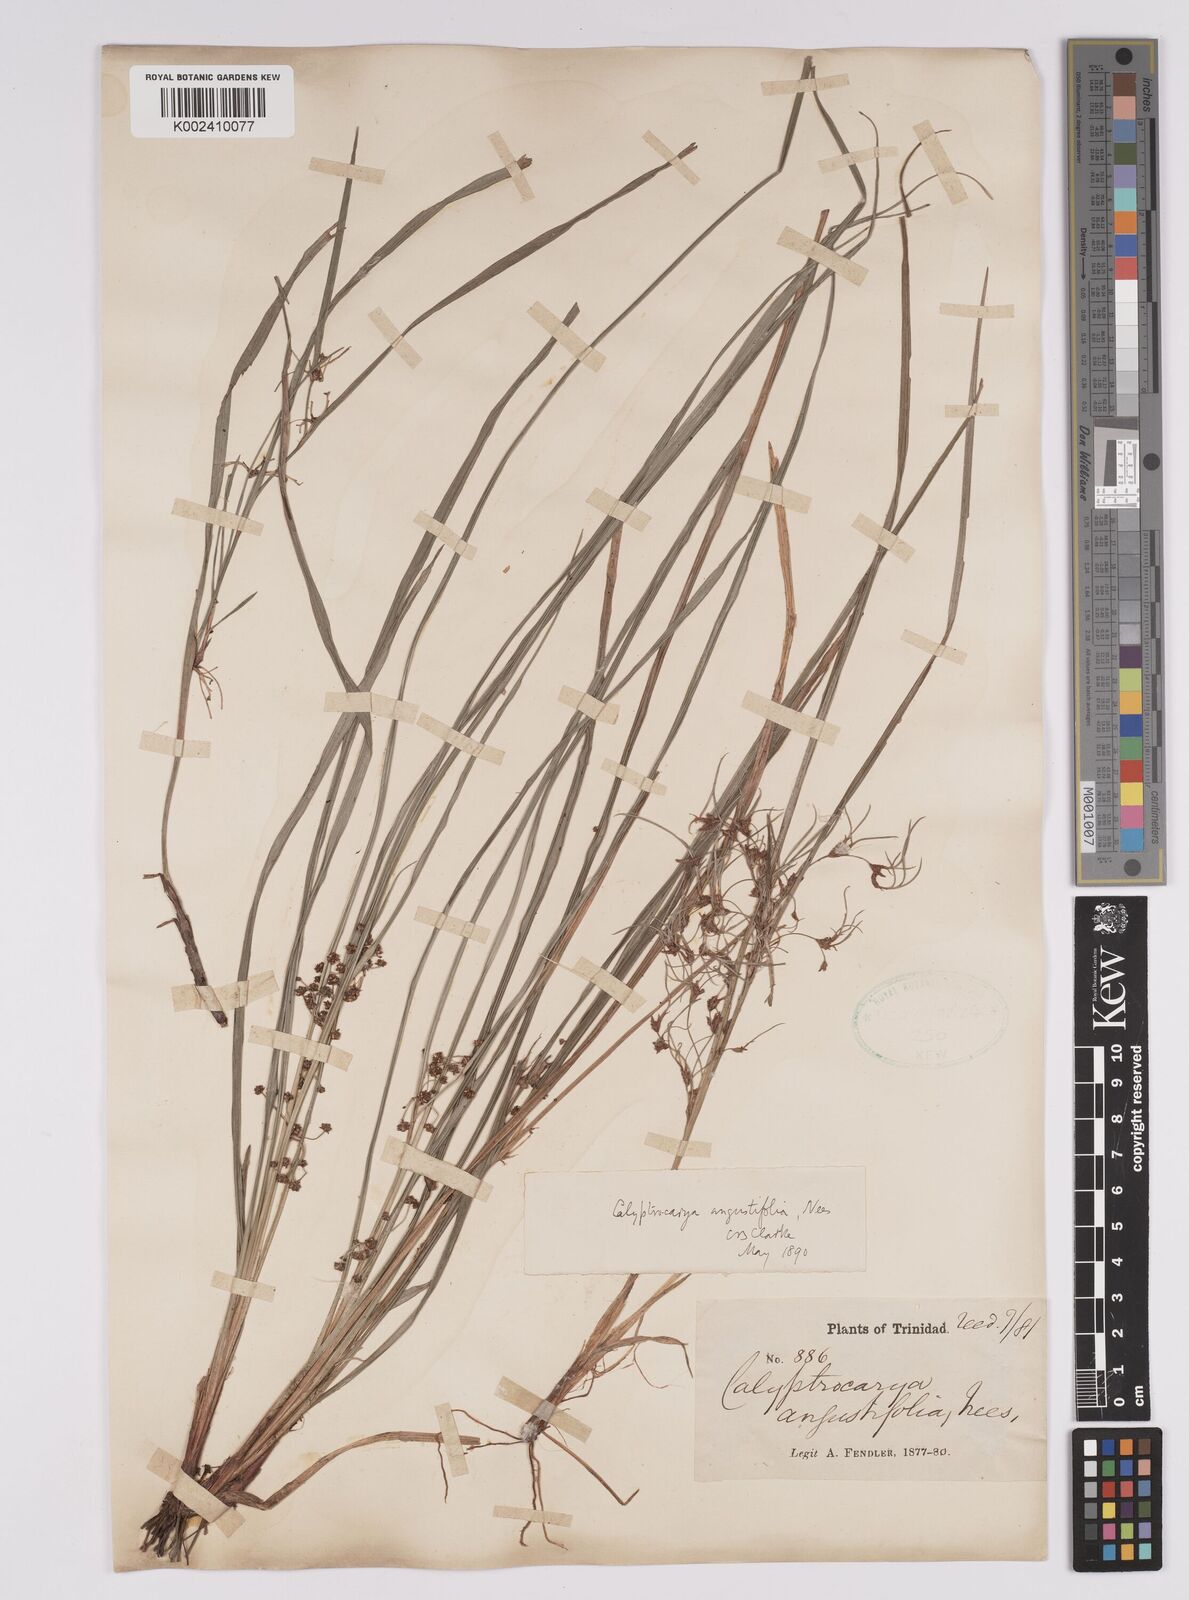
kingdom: Plantae
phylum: Tracheophyta
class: Liliopsida
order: Poales
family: Cyperaceae
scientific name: Cyperaceae
